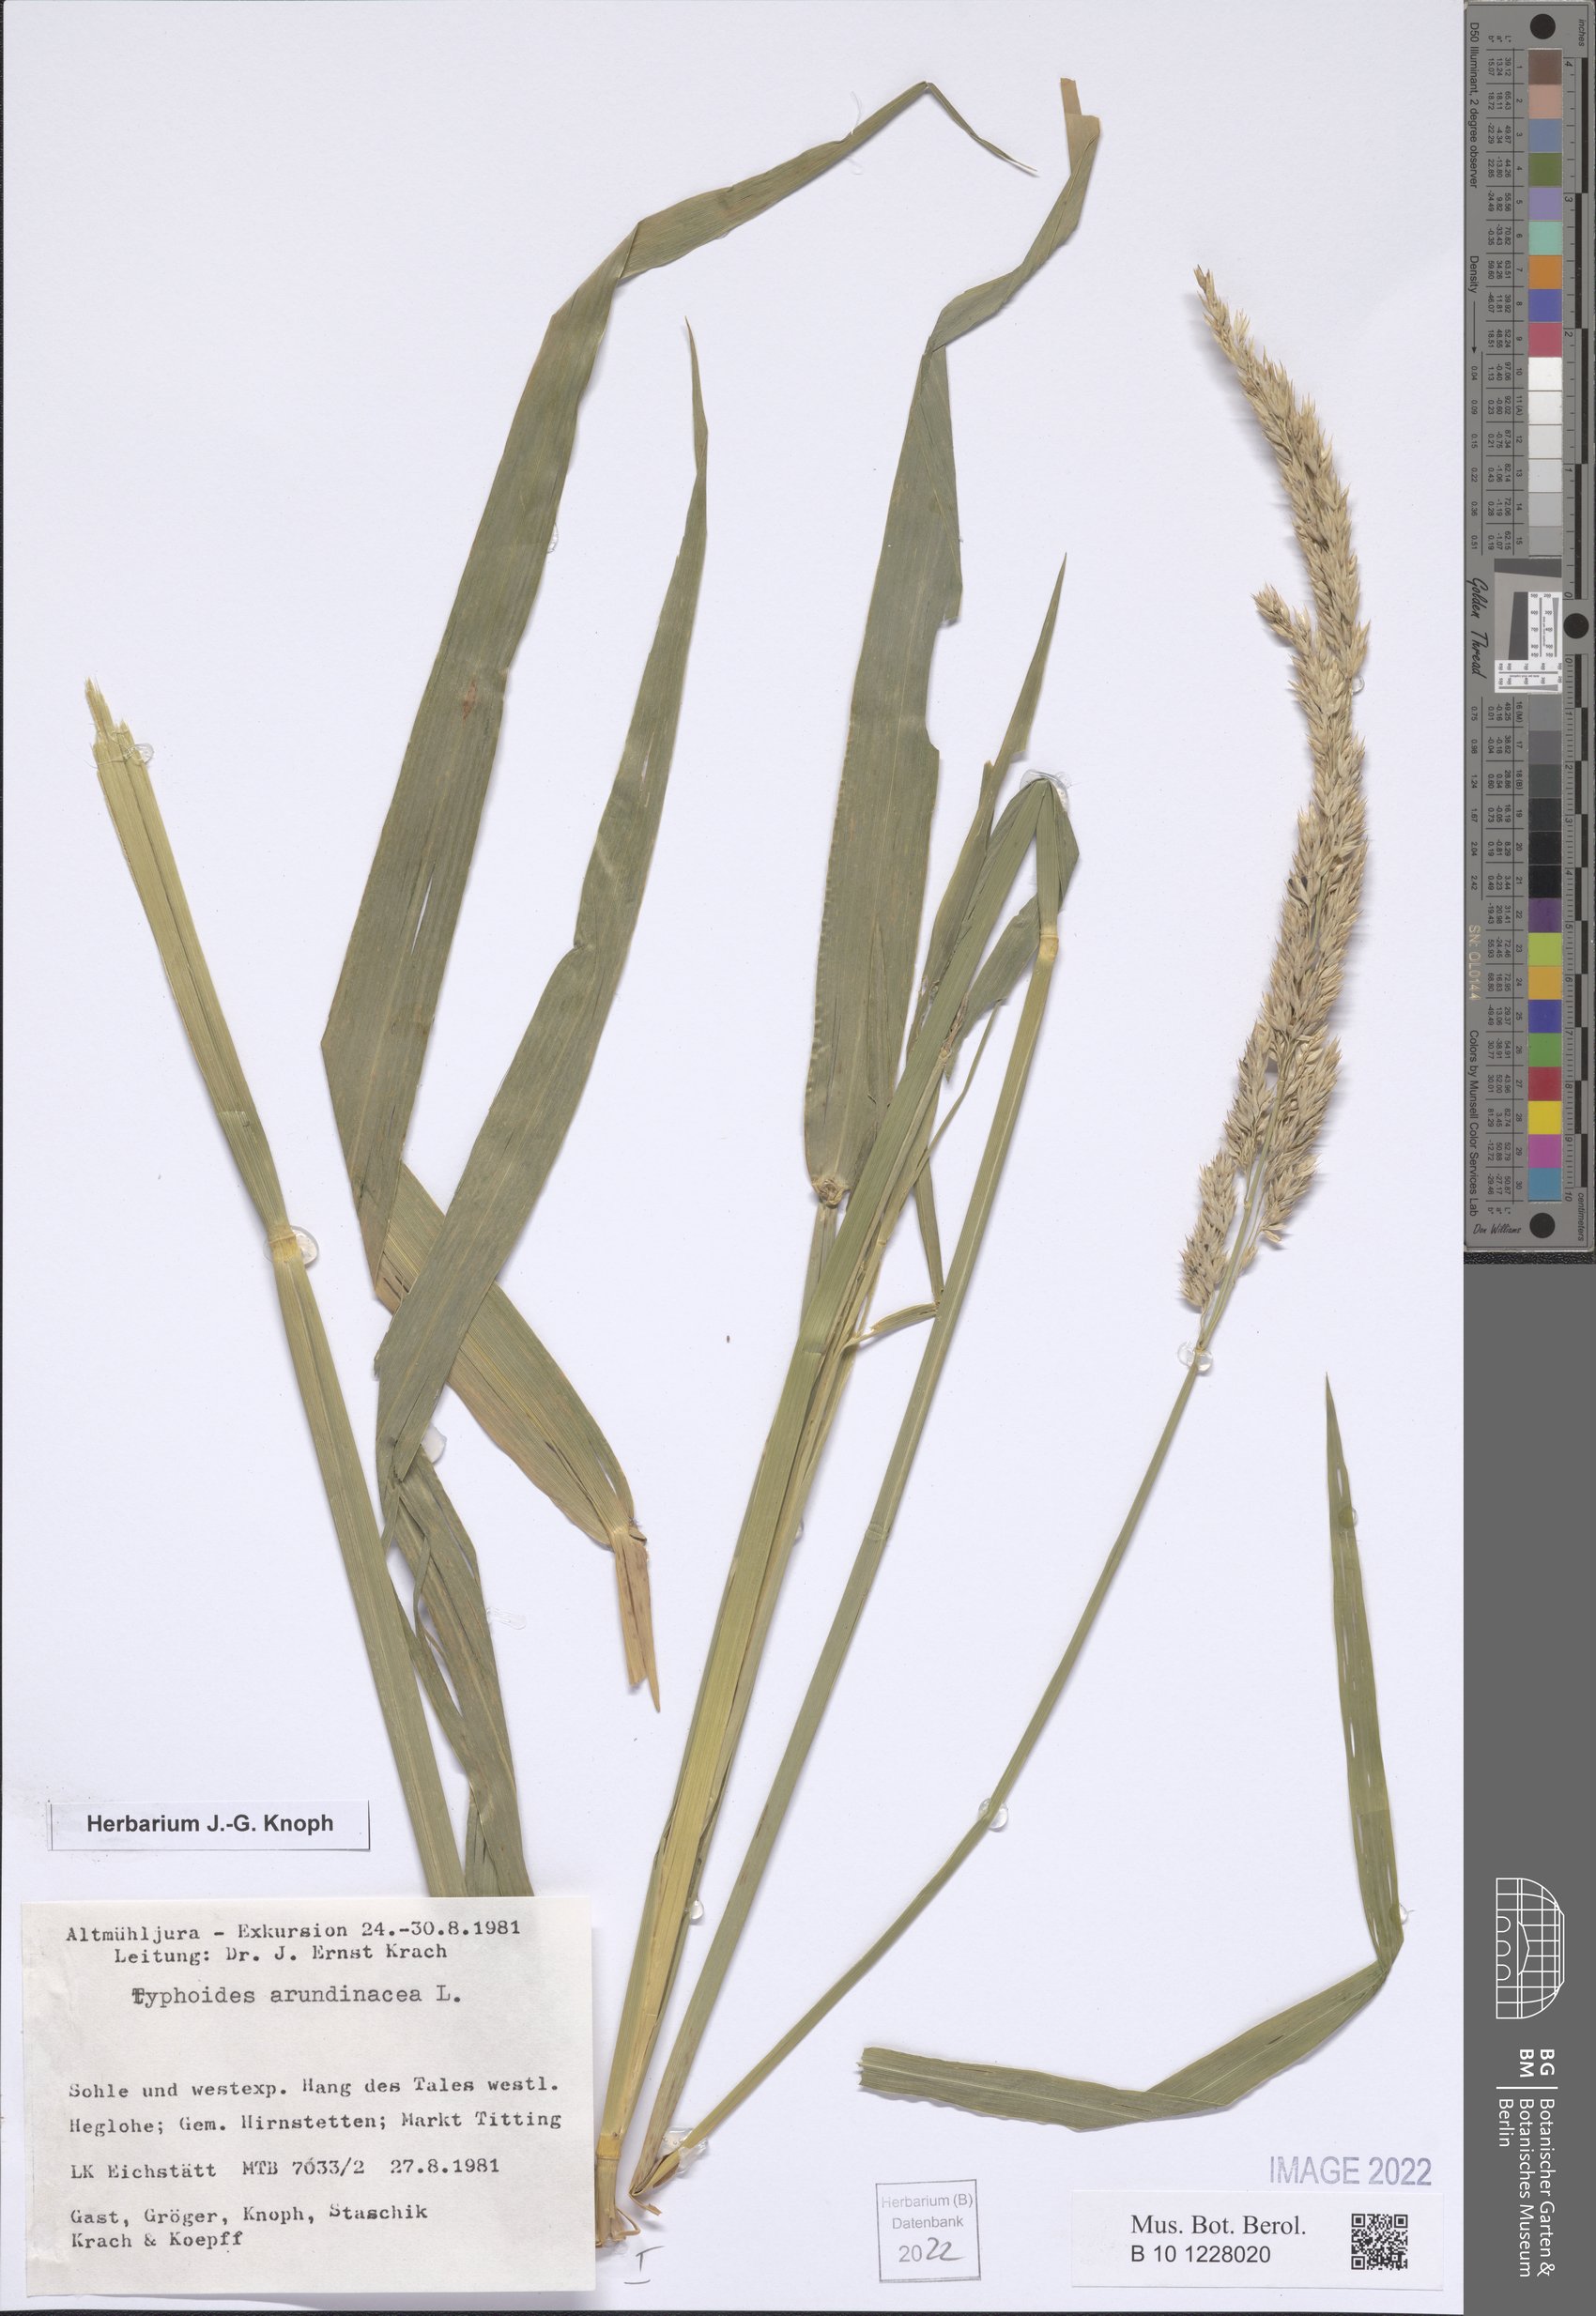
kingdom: Plantae
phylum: Tracheophyta
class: Liliopsida
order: Poales
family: Poaceae
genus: Phalaris
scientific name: Phalaris arundinacea
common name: Reed canary-grass
